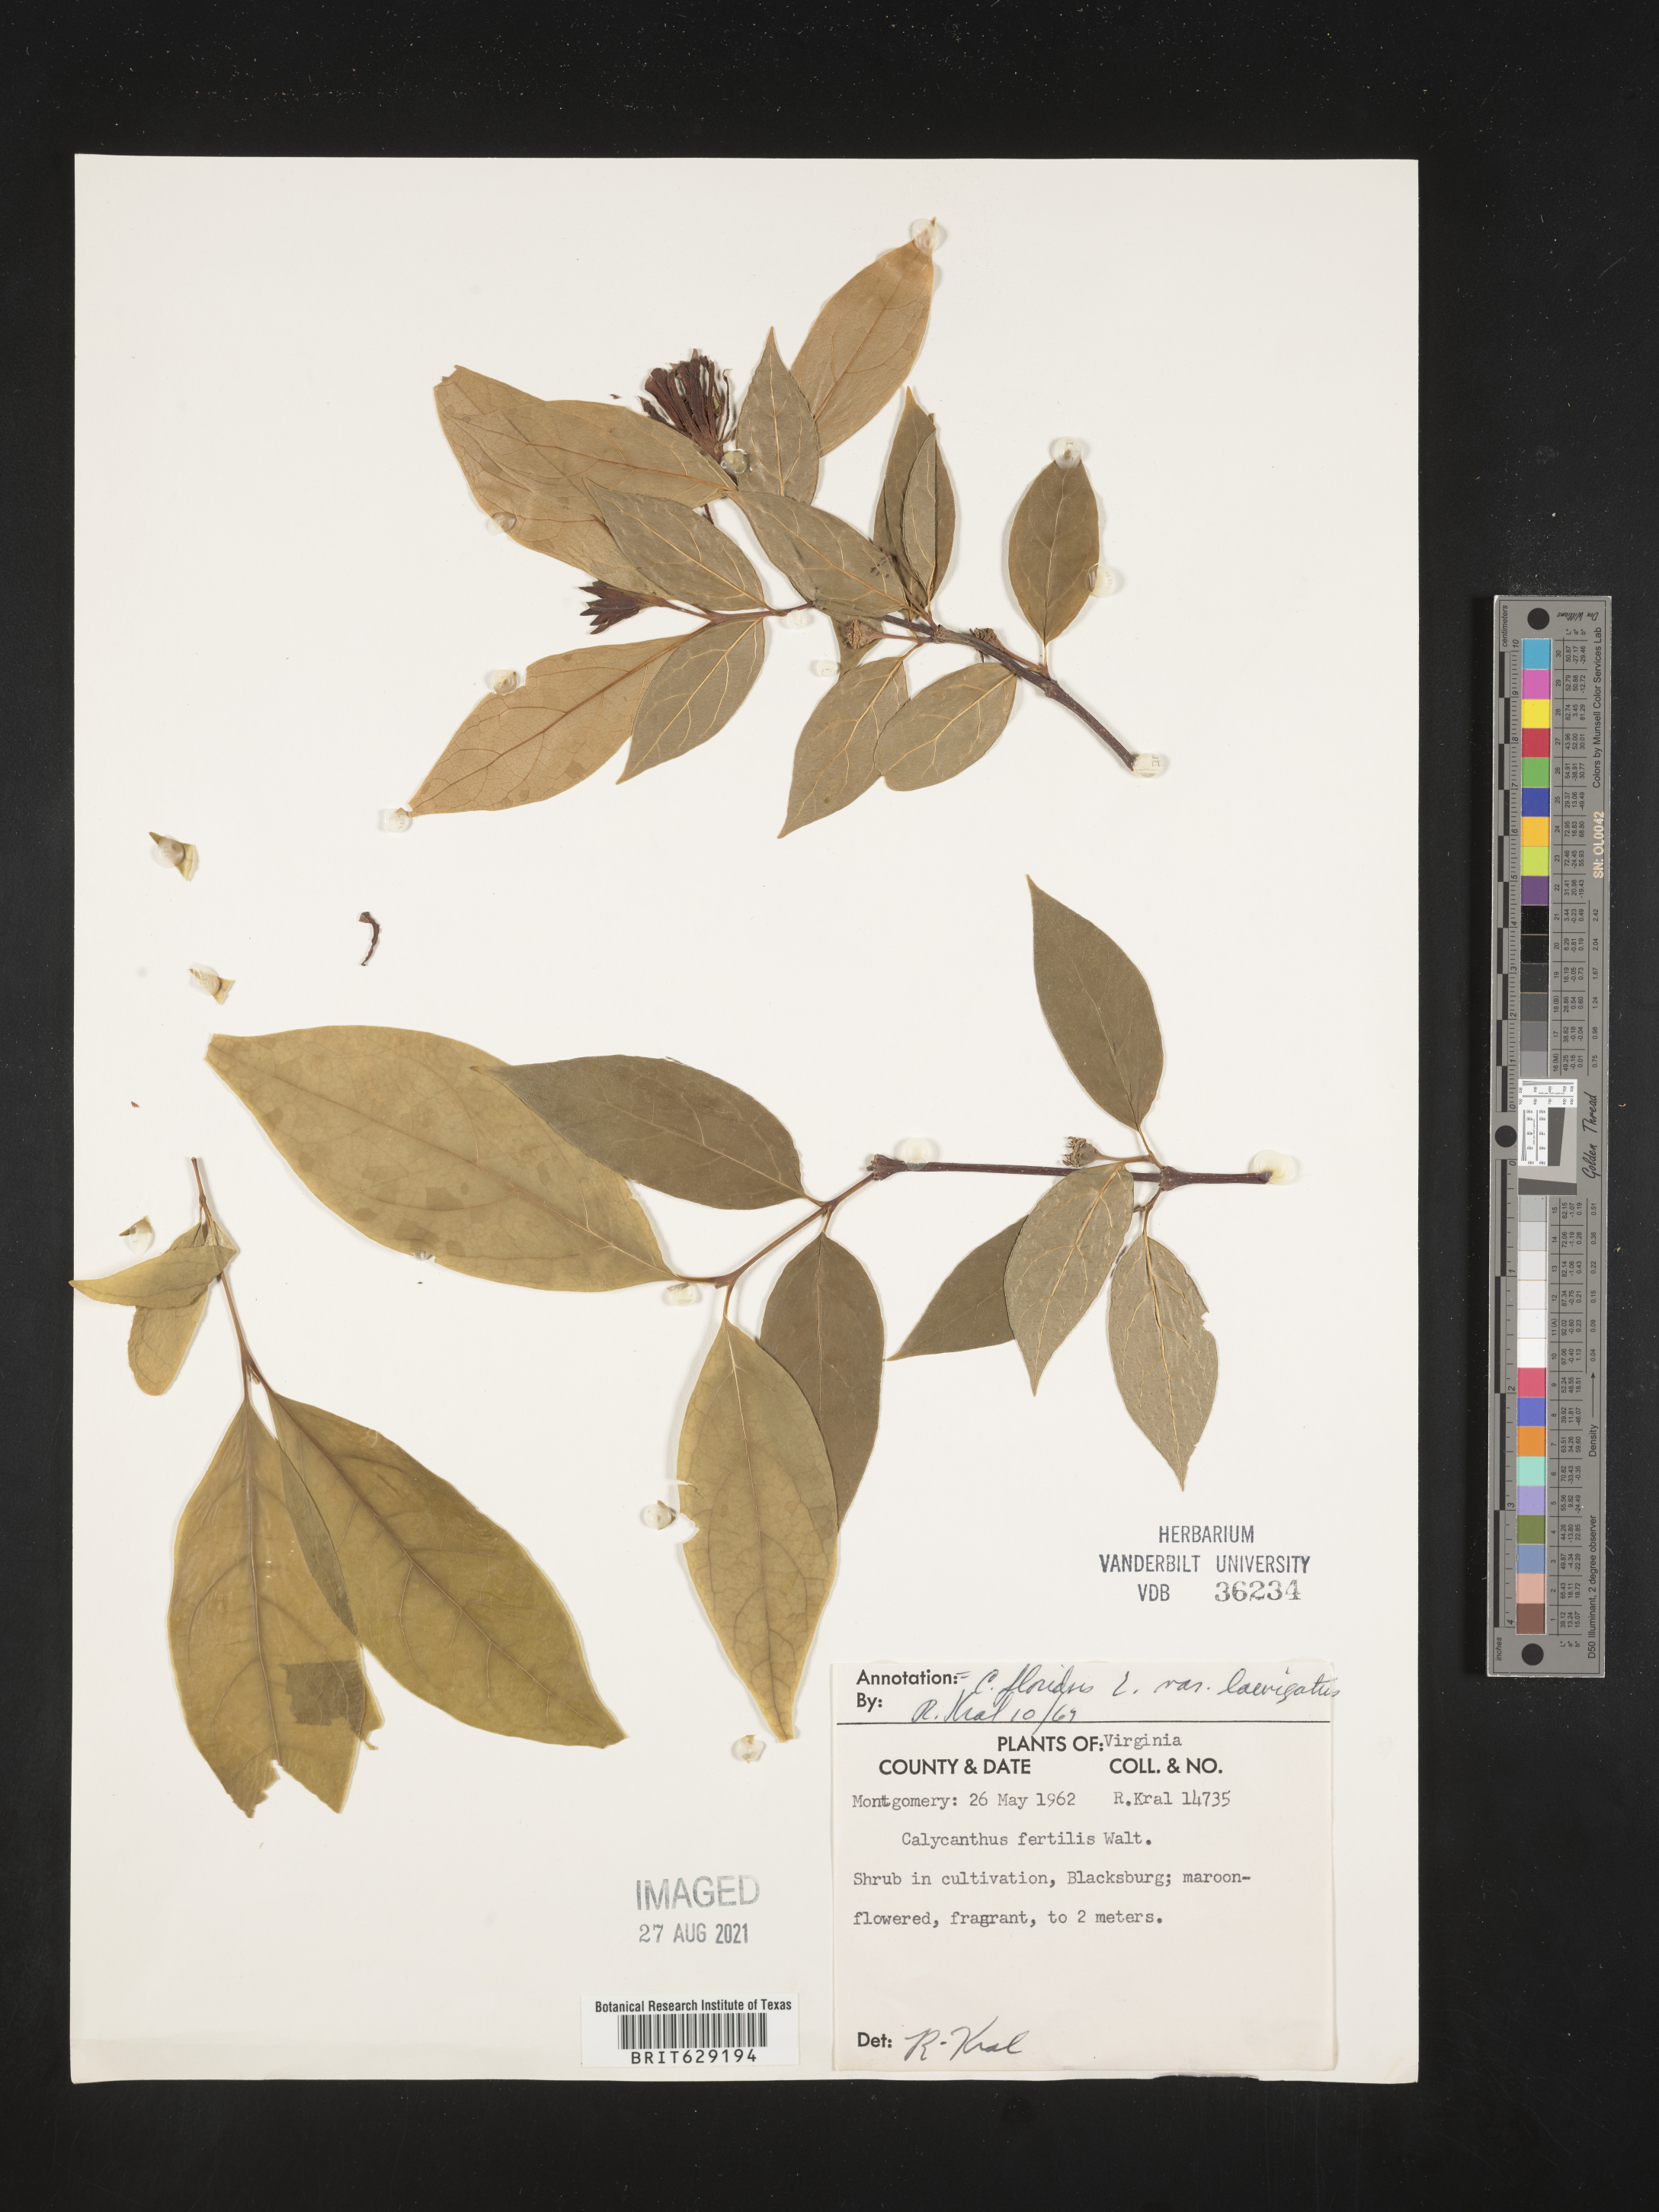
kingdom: Plantae
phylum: Tracheophyta
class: Magnoliopsida
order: Laurales
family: Calycanthaceae
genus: Calycanthus
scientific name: Calycanthus floridus
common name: Carolina-allspice
